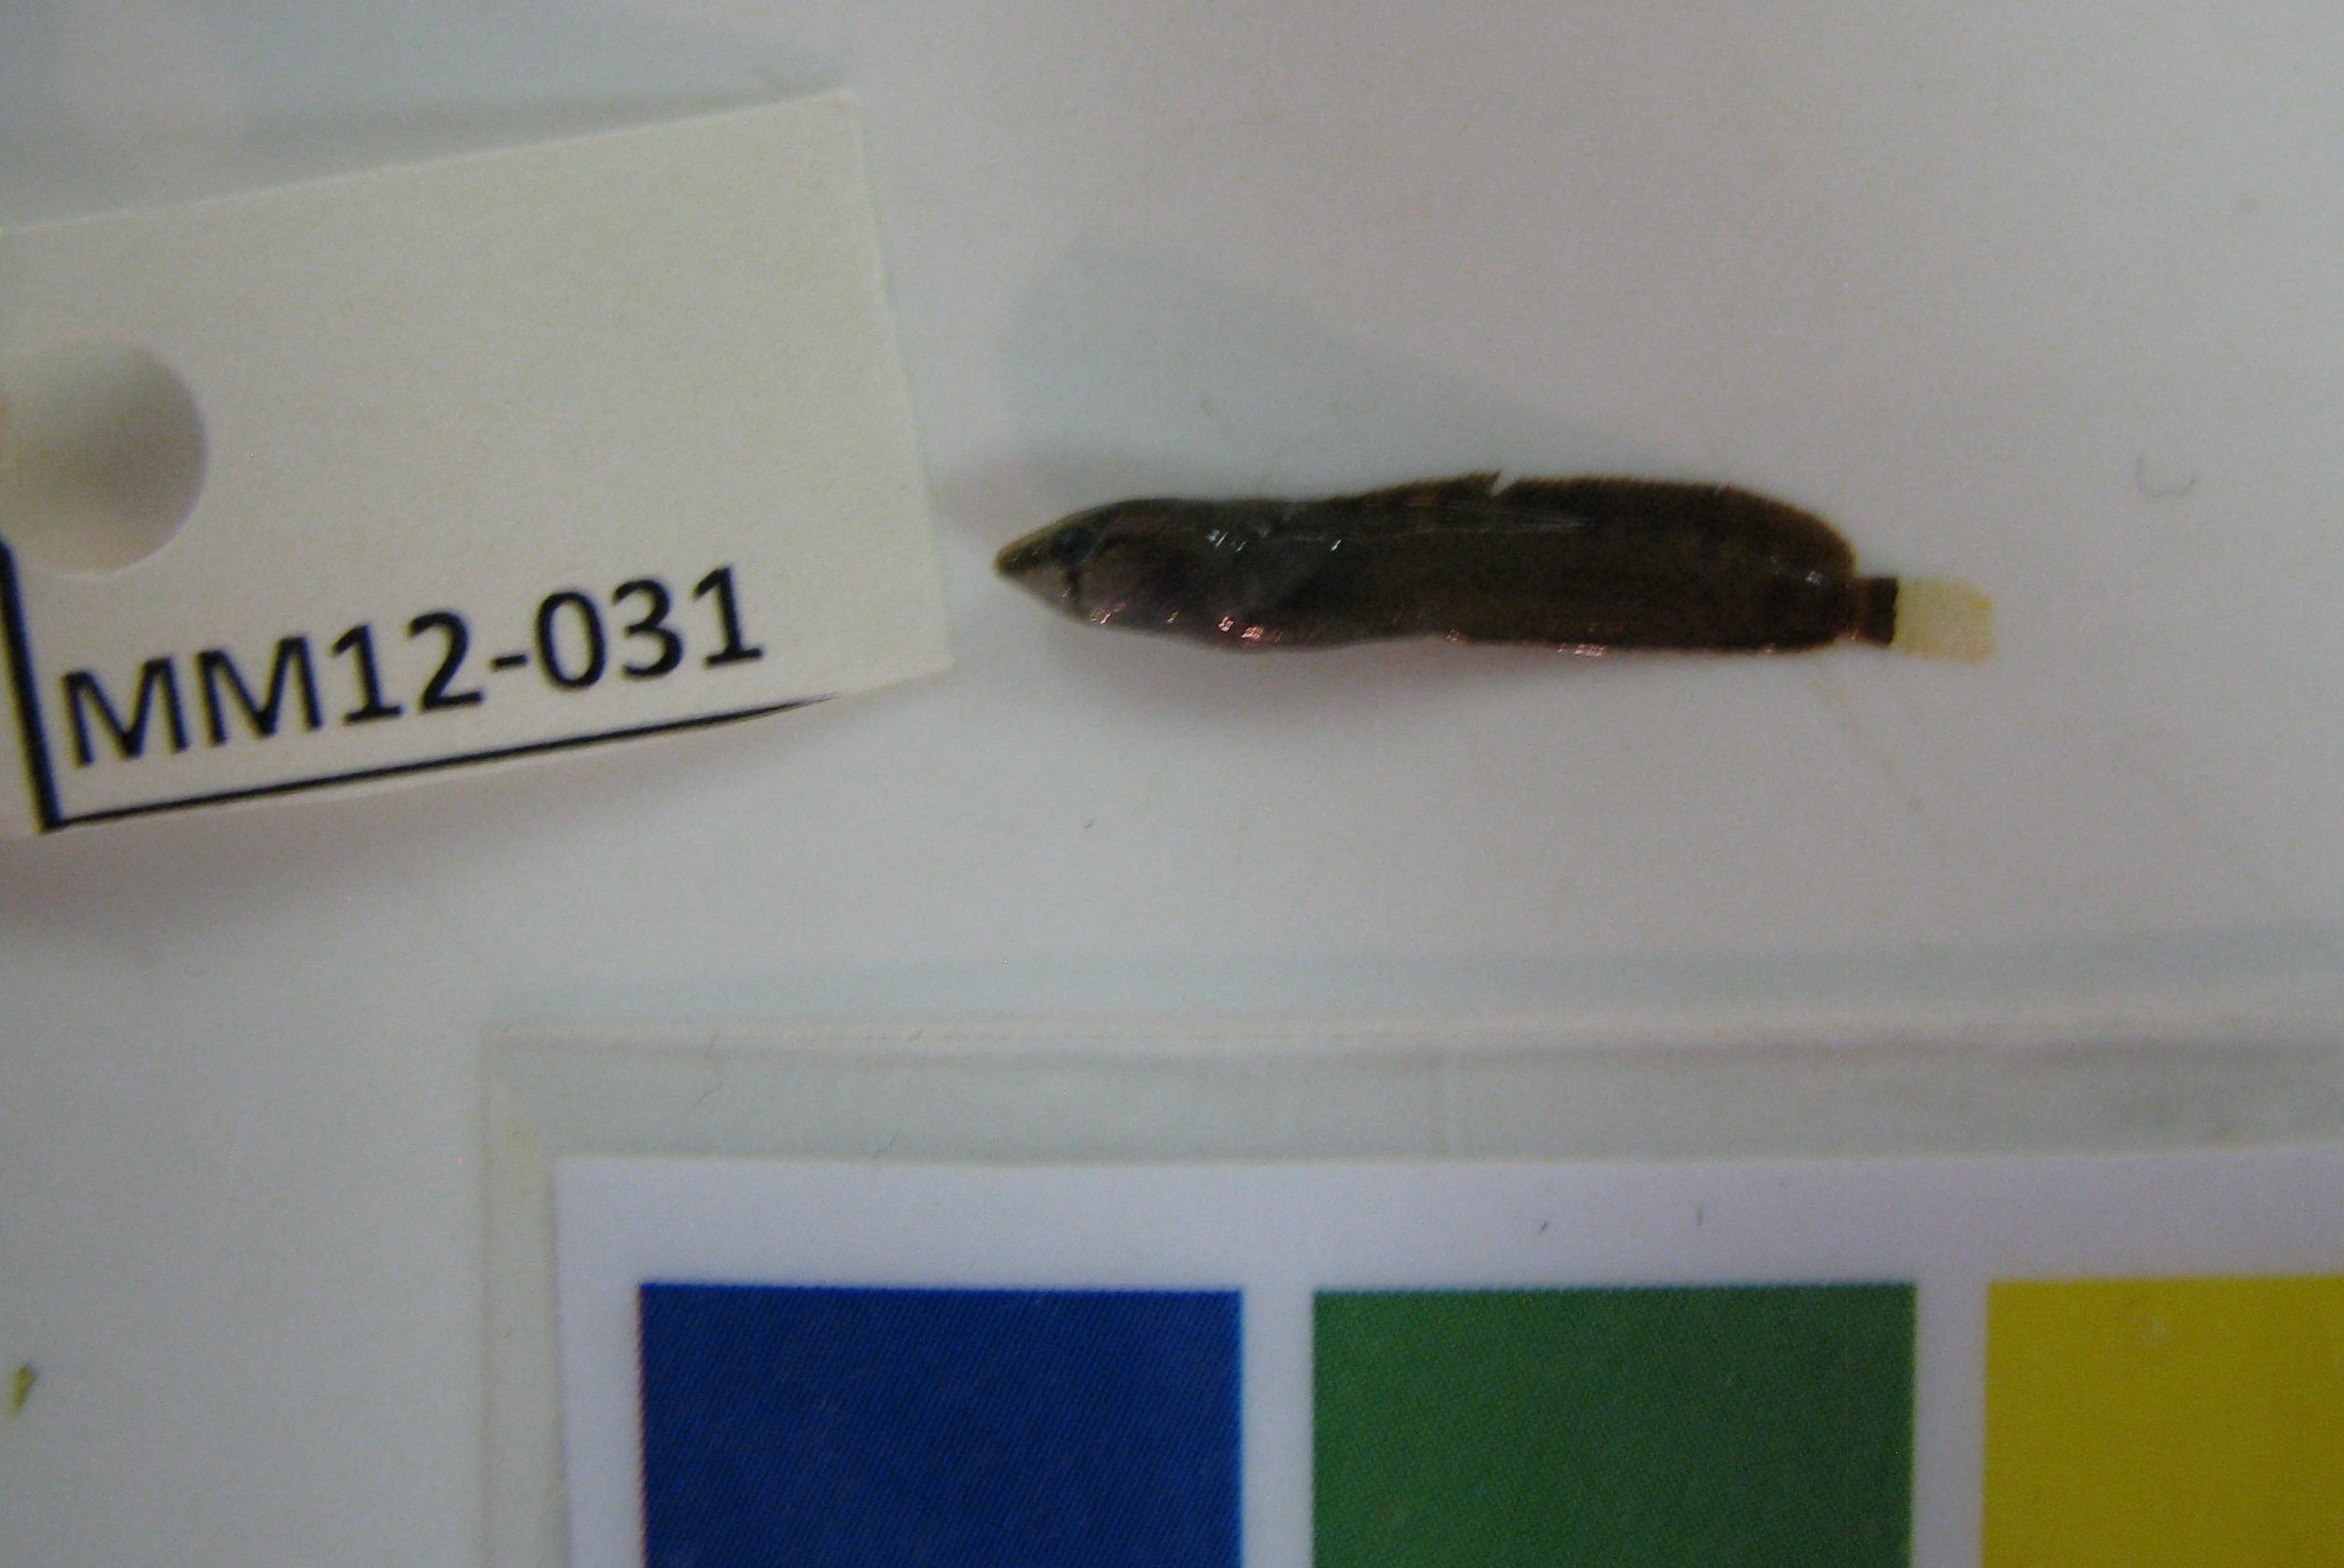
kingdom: Animalia
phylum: Chordata
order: Perciformes
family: Clinidae
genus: Muraenoclinus
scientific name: Muraenoclinus dorsalis
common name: Nosestripe klipfish
